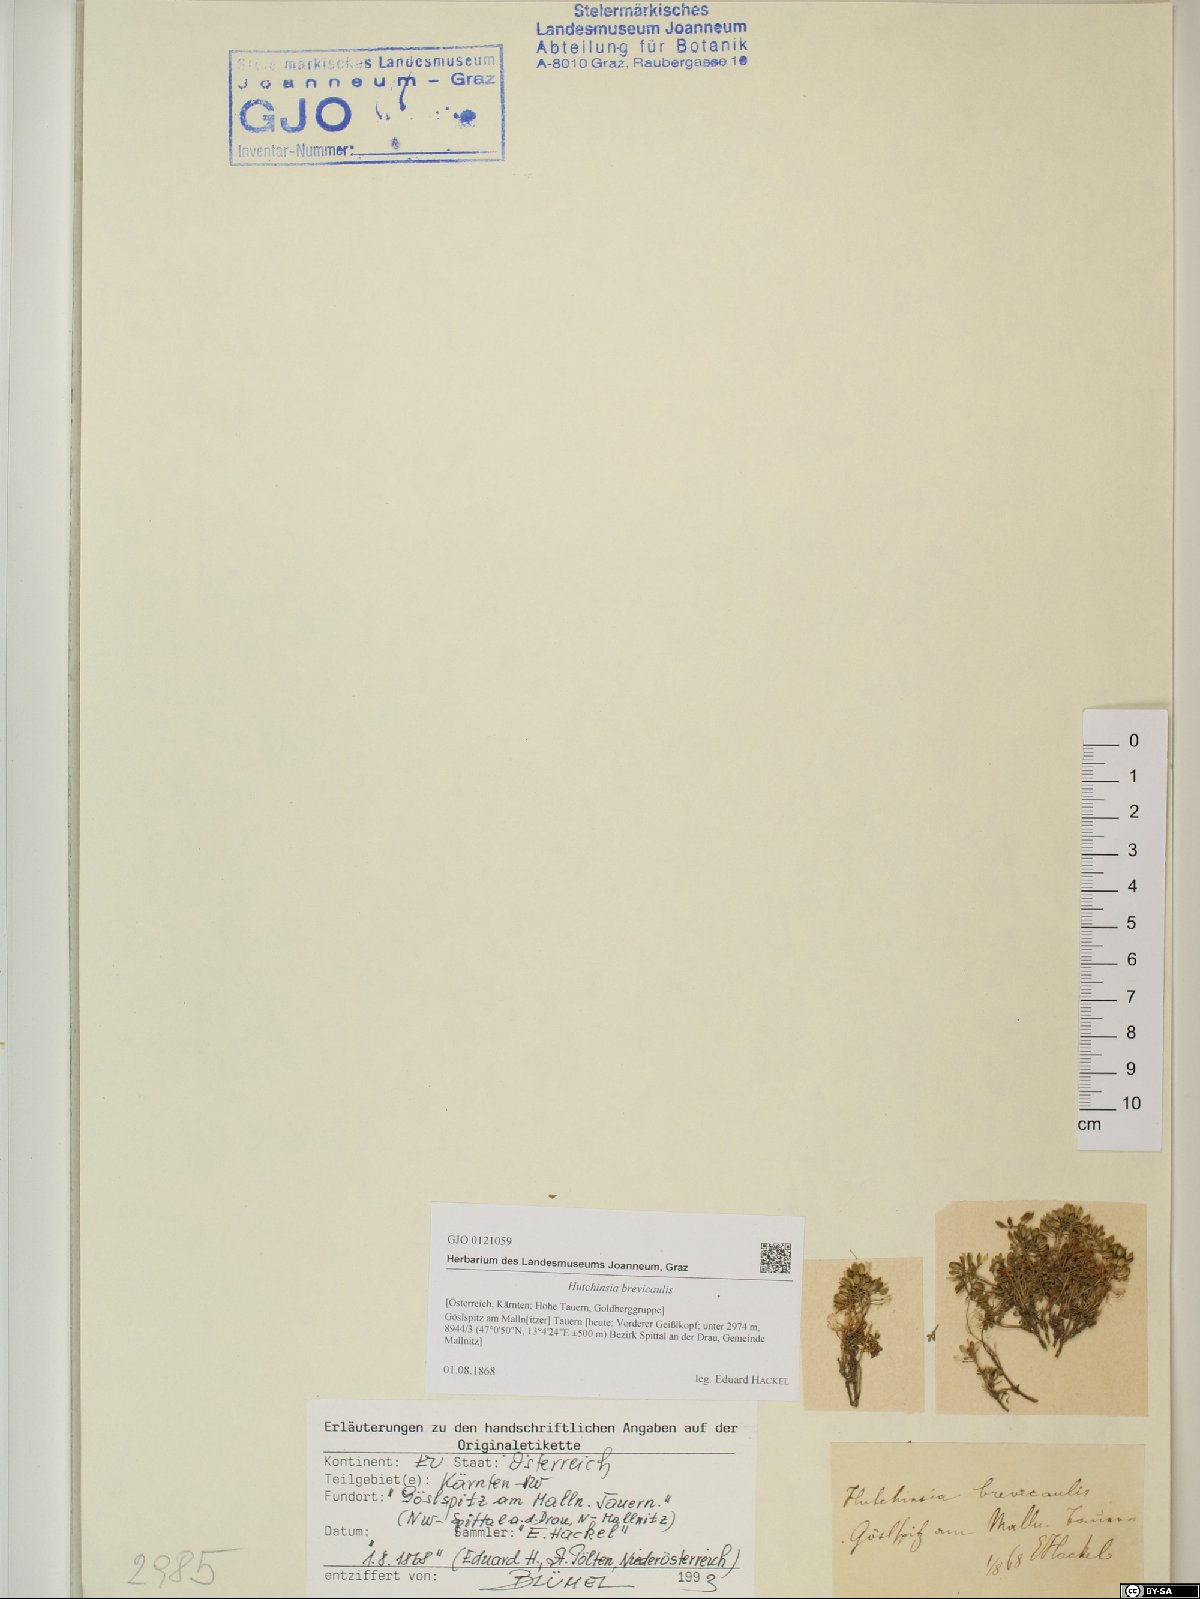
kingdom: Plantae
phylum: Tracheophyta
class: Magnoliopsida
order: Brassicales
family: Brassicaceae
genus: Hornungia
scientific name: Hornungia alpina
